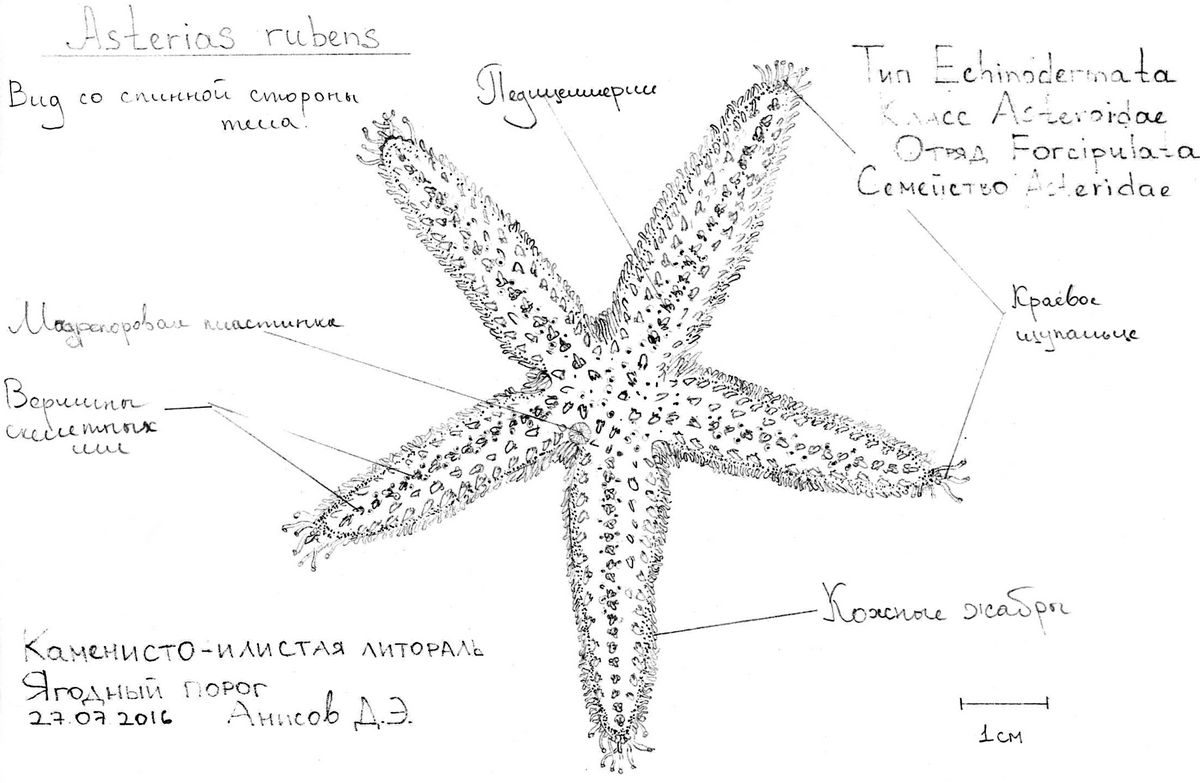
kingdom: Animalia
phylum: Echinodermata
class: Asteroidea
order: Forcipulatida
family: Asteriidae
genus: Asterias
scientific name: Asterias rubens
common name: Common starfish
